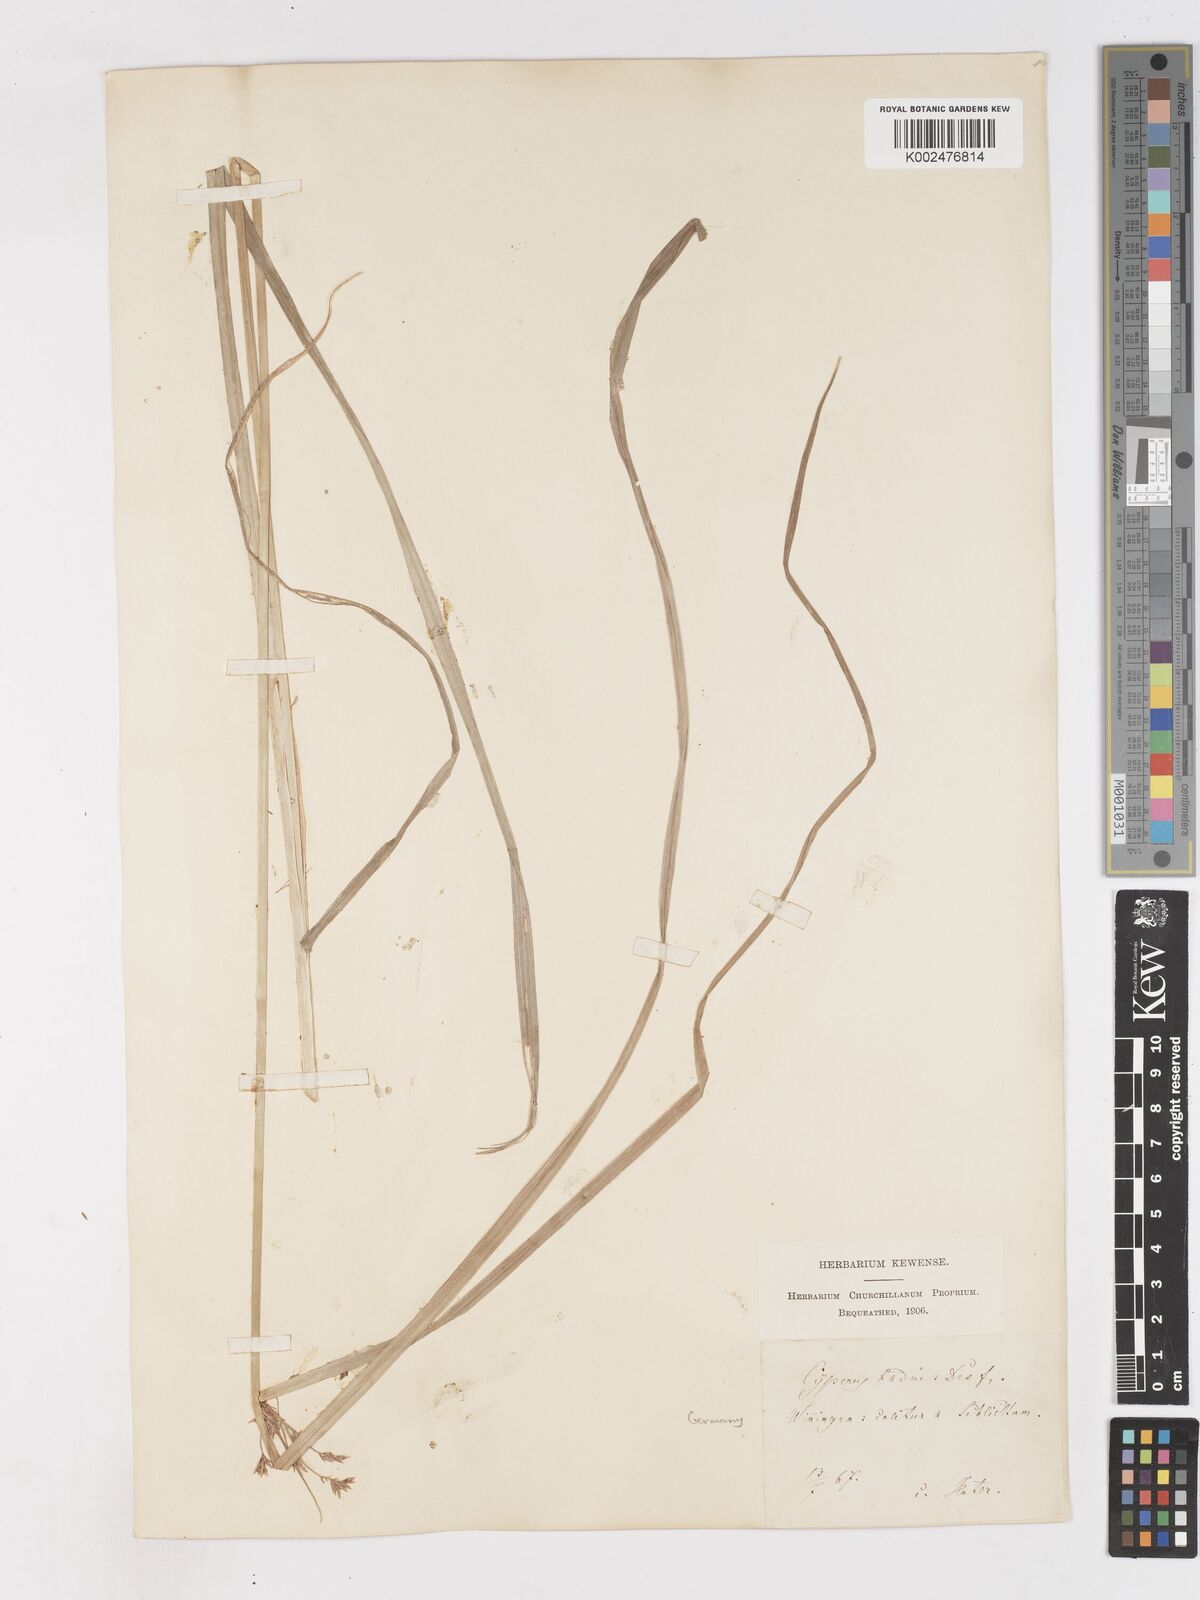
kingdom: Plantae
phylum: Tracheophyta
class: Liliopsida
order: Poales
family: Cyperaceae
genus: Cyperus
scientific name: Cyperus longus
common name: Galingale
